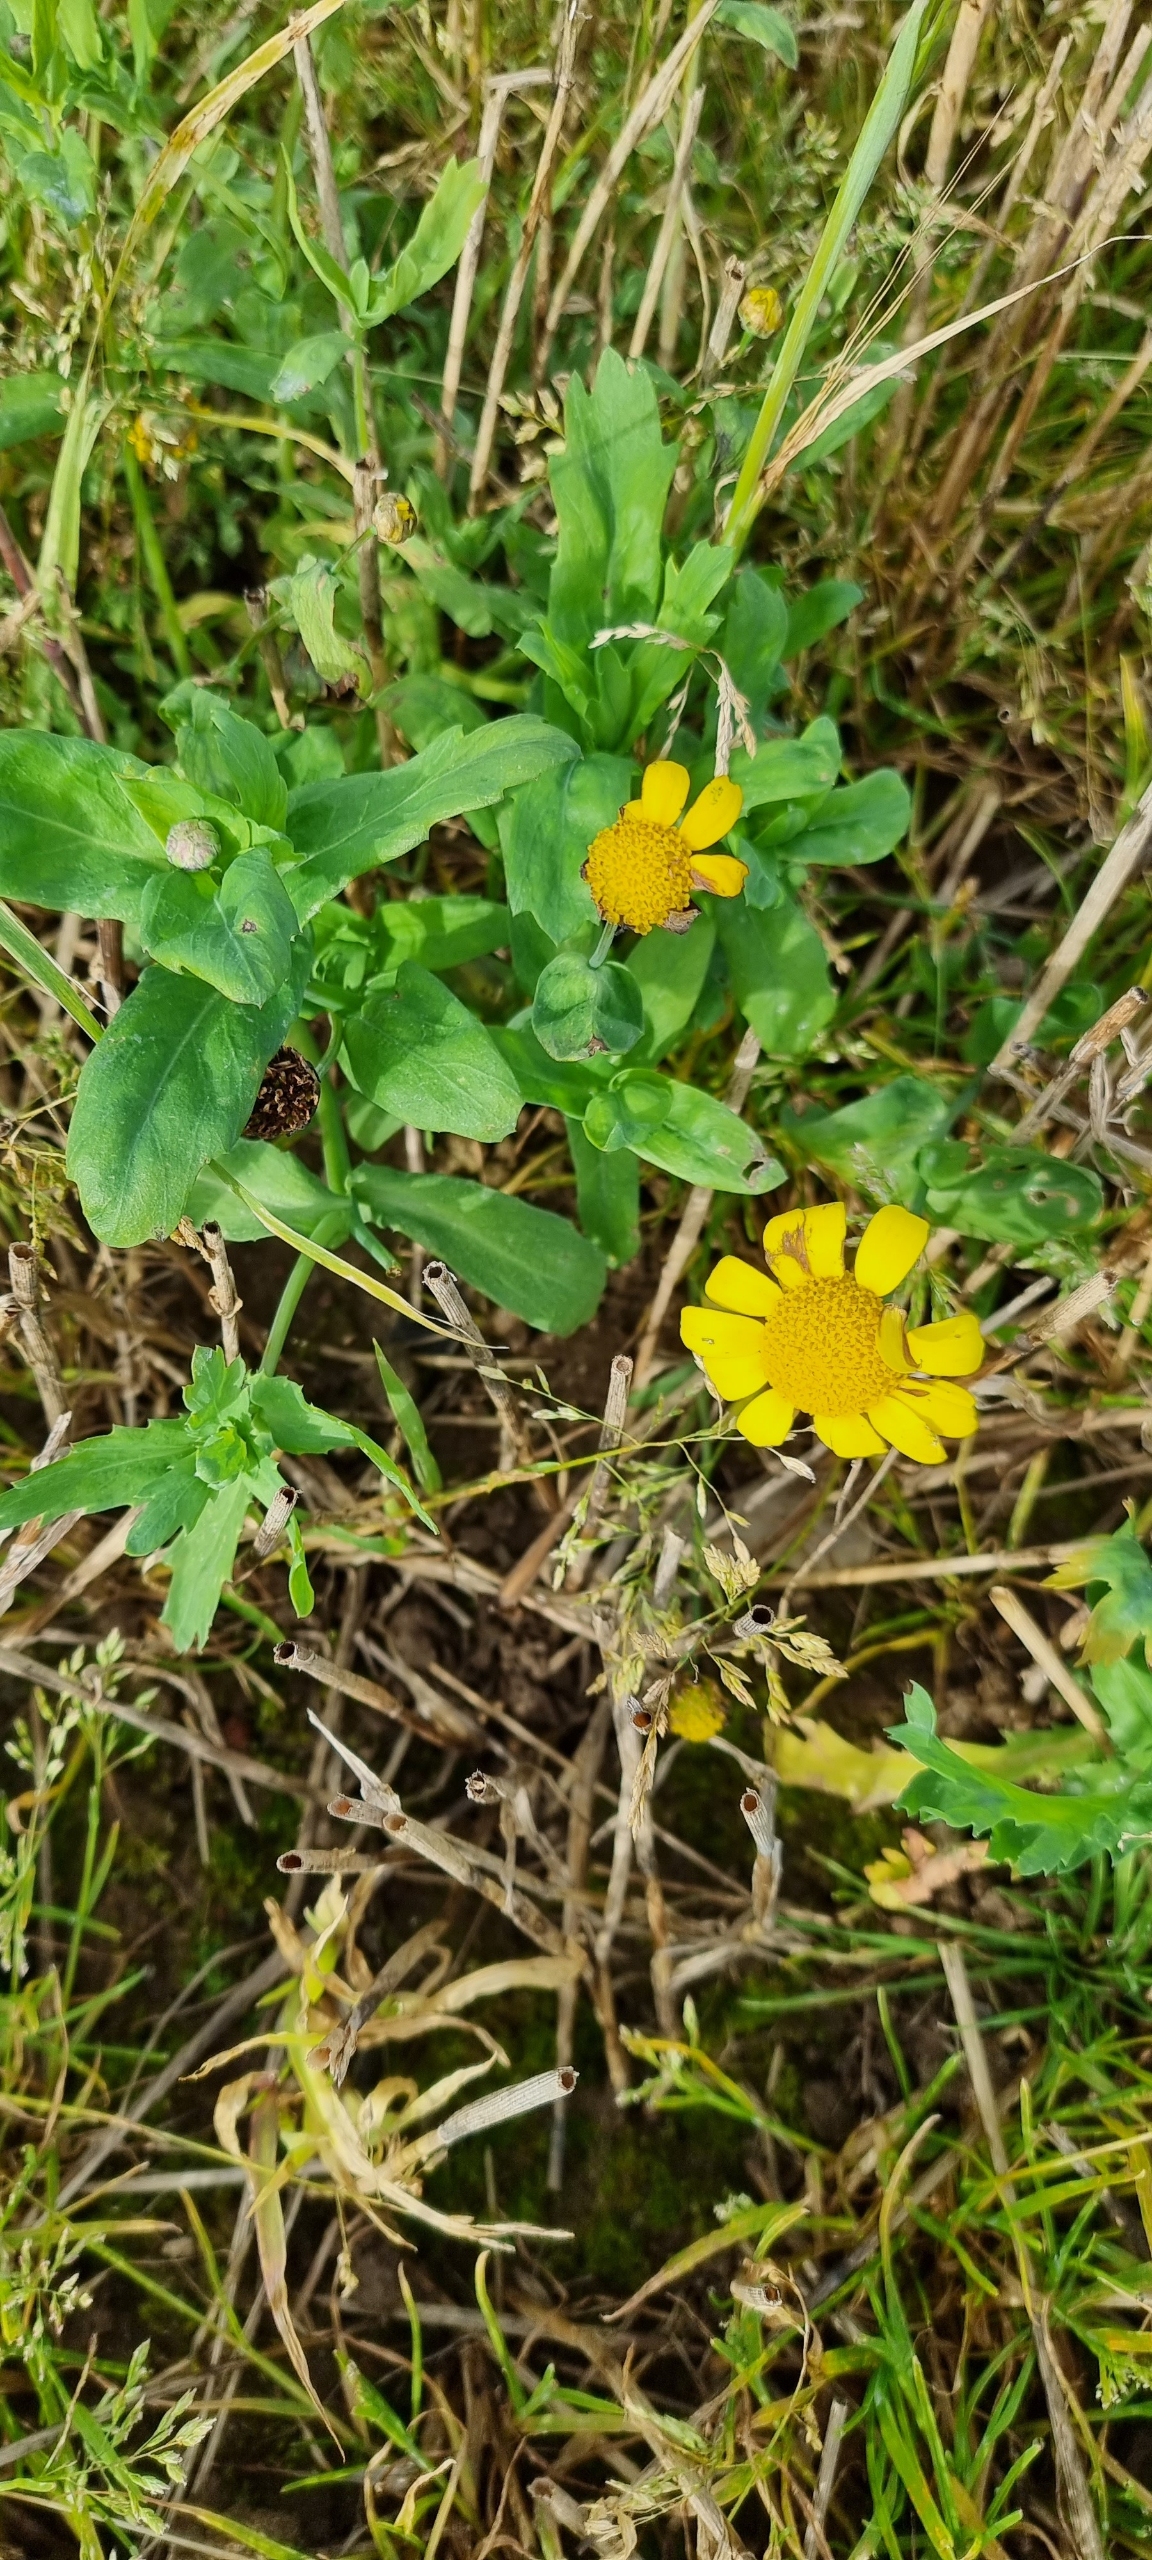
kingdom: Plantae
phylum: Tracheophyta
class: Magnoliopsida
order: Asterales
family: Asteraceae
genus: Glebionis
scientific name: Glebionis segetum
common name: Gul okseøje
